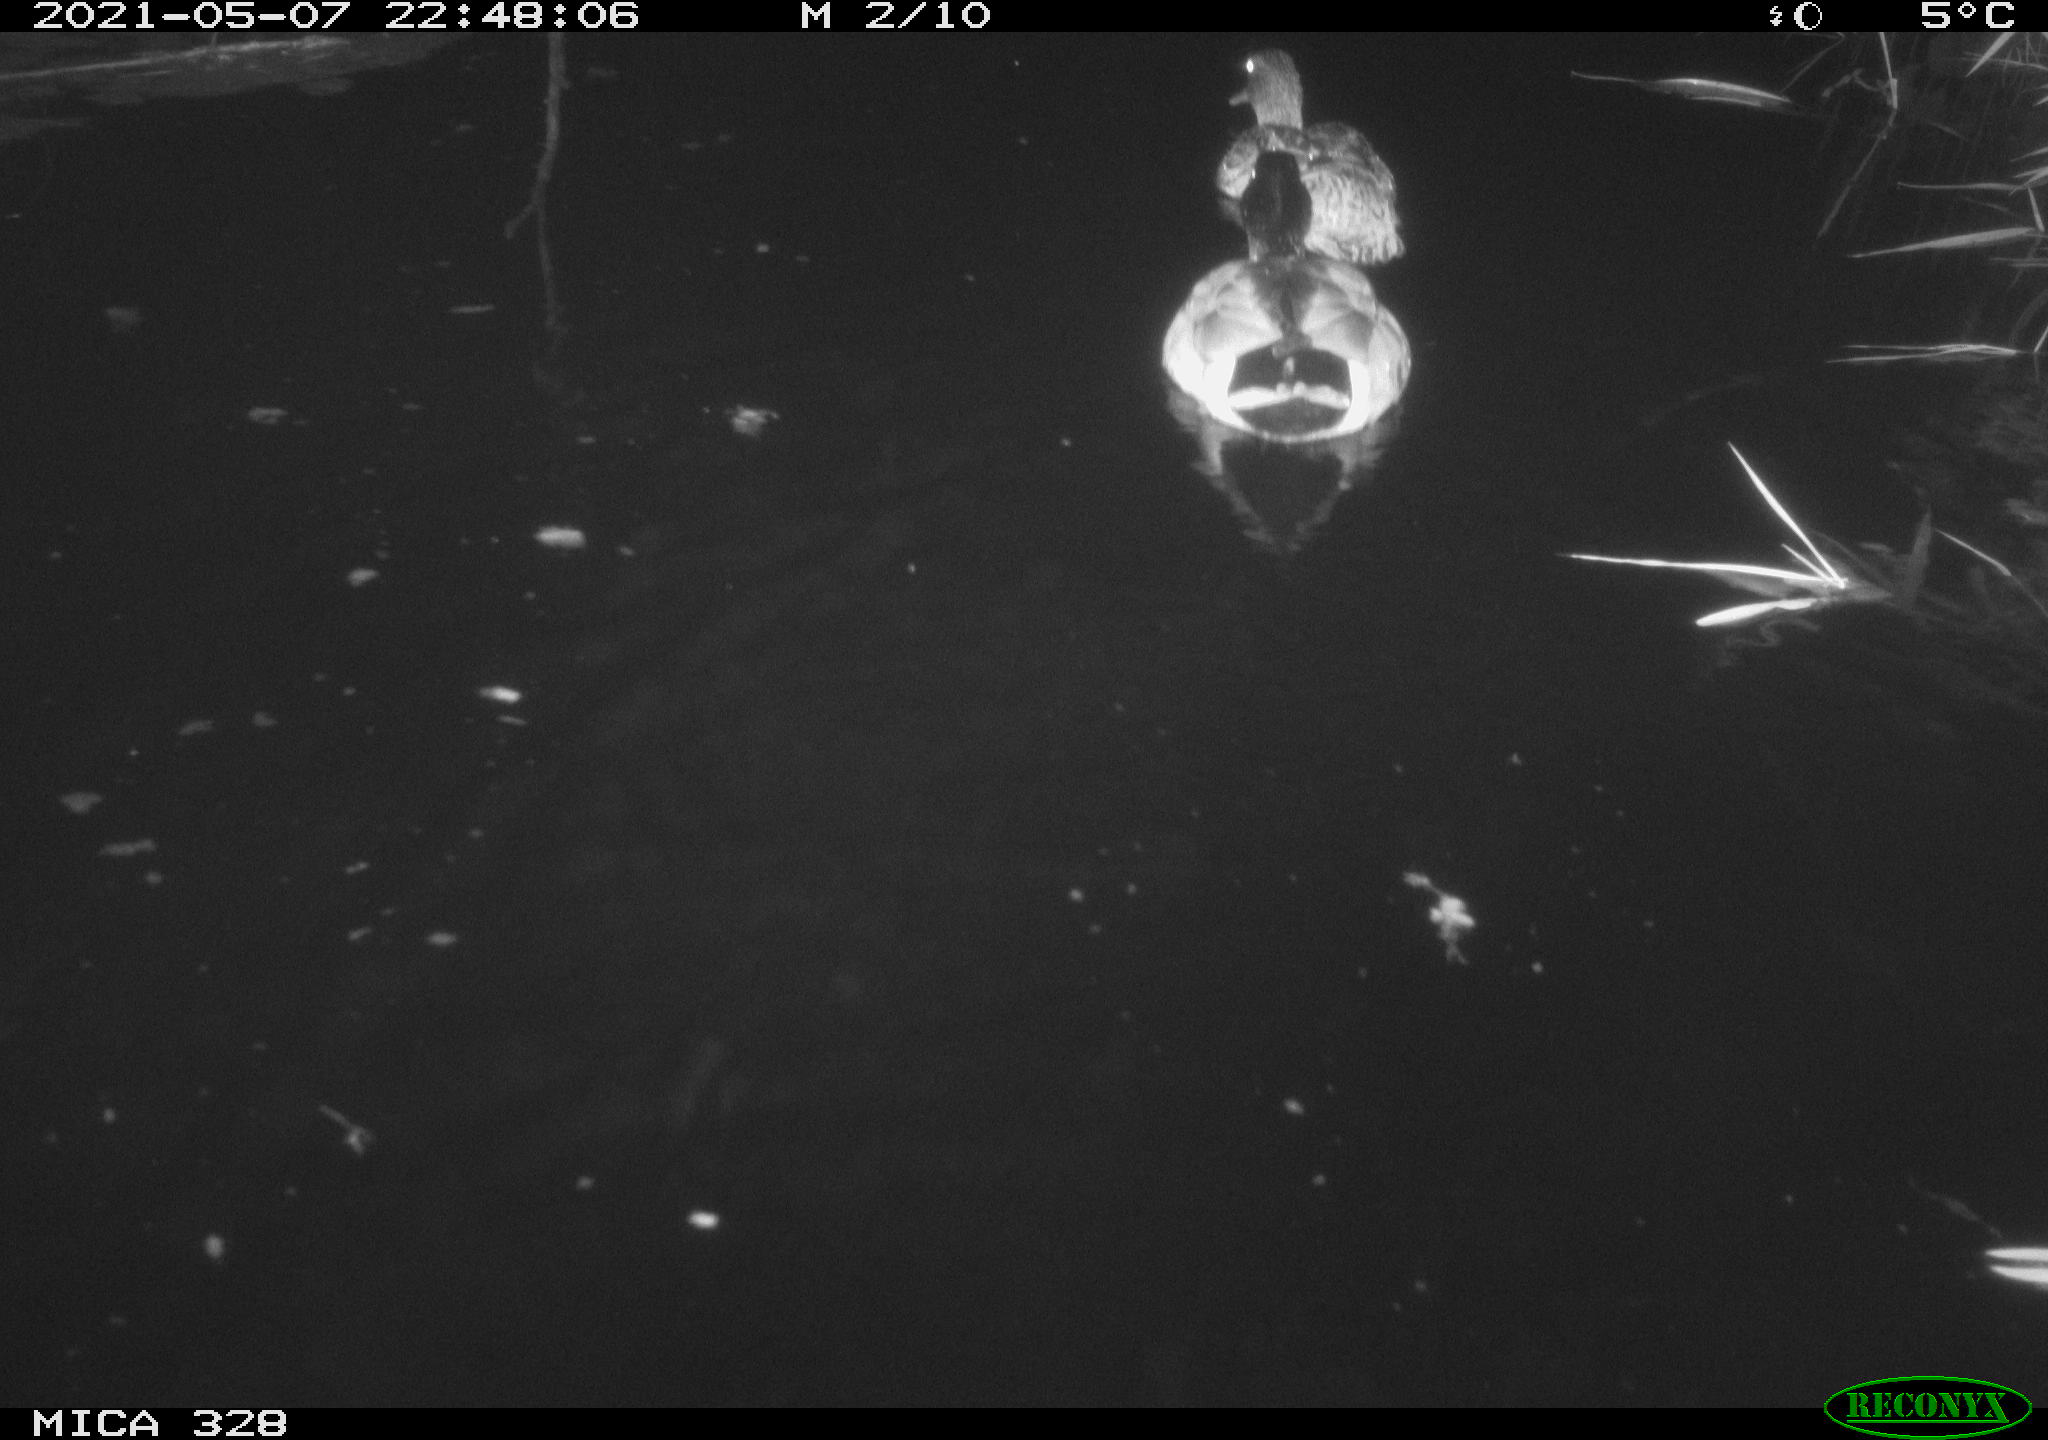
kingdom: Animalia
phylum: Chordata
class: Aves
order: Anseriformes
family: Anatidae
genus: Anas
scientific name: Anas platyrhynchos
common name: Mallard
